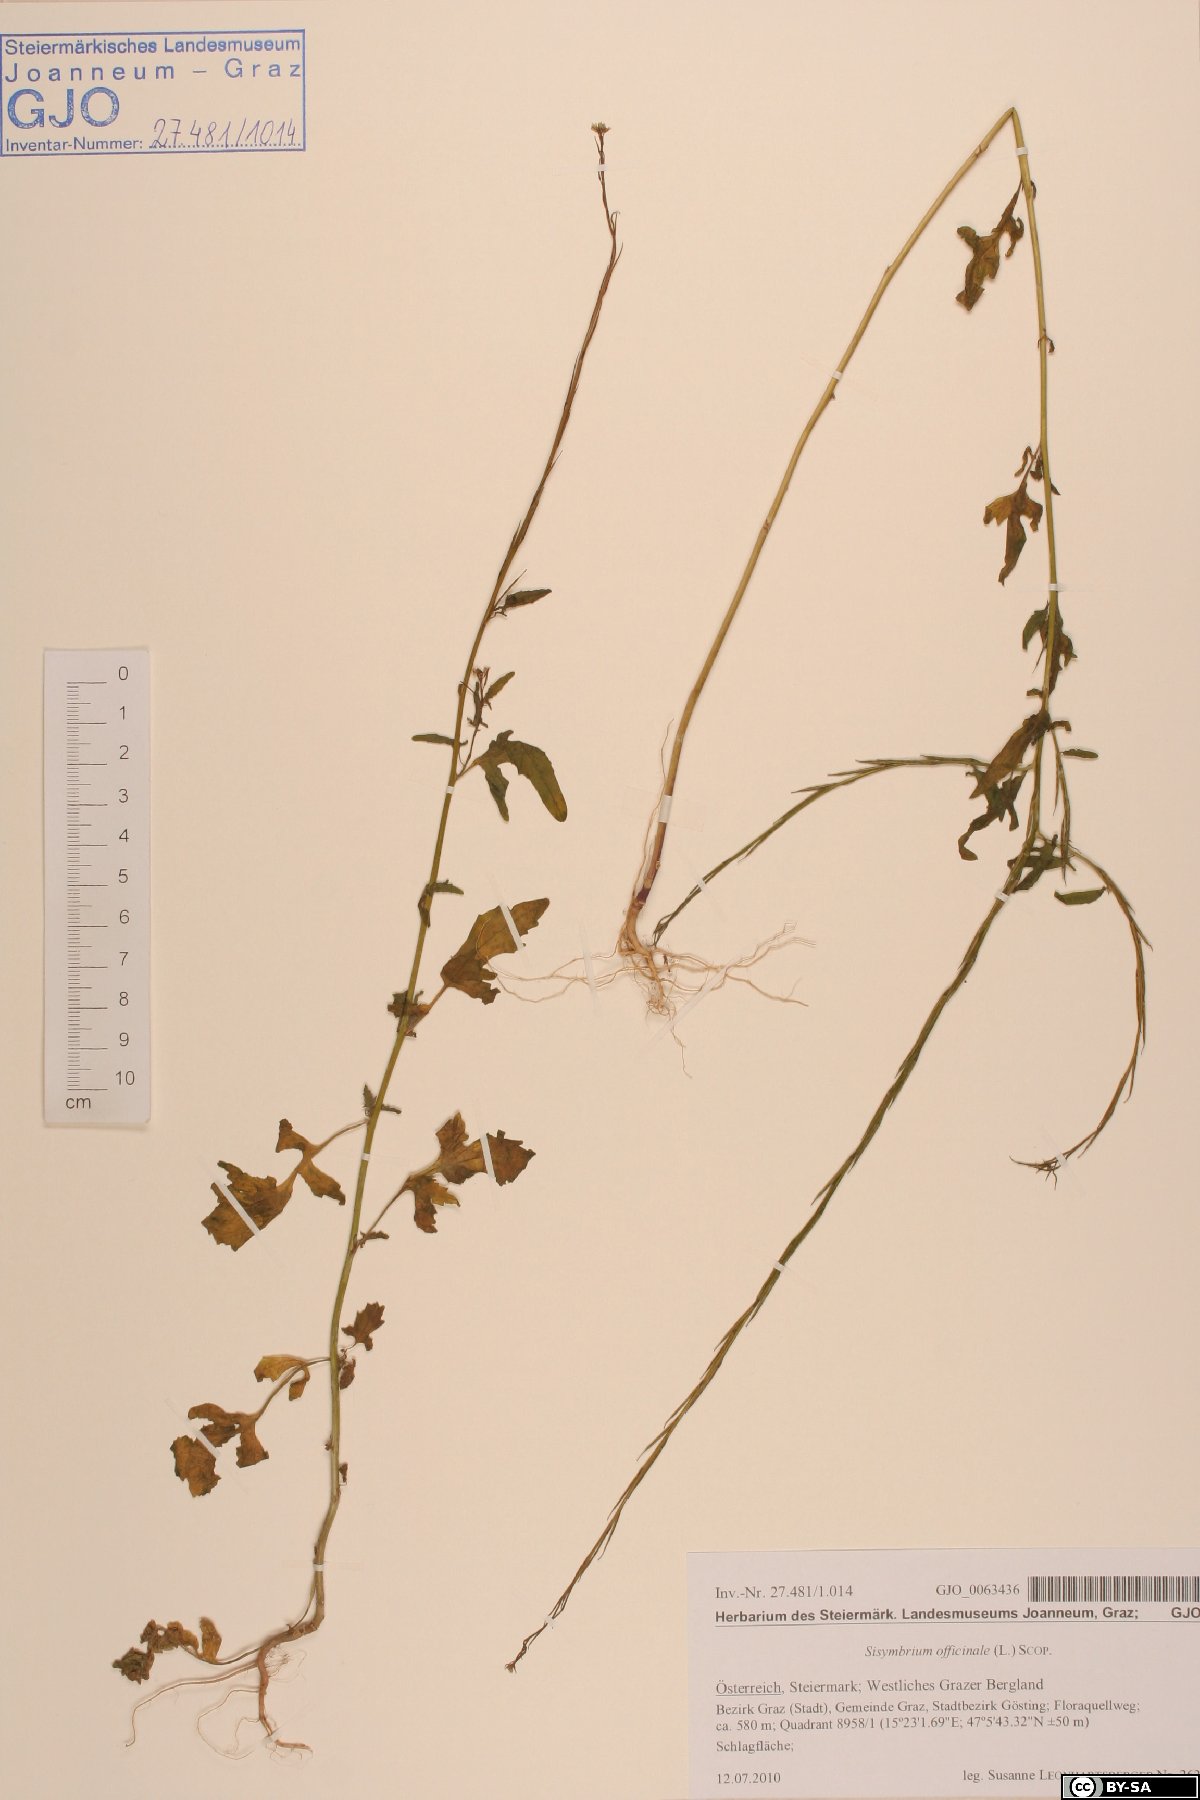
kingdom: Plantae
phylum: Tracheophyta
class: Magnoliopsida
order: Brassicales
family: Brassicaceae
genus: Sisymbrium
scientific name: Sisymbrium officinale
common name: Hedge mustard
